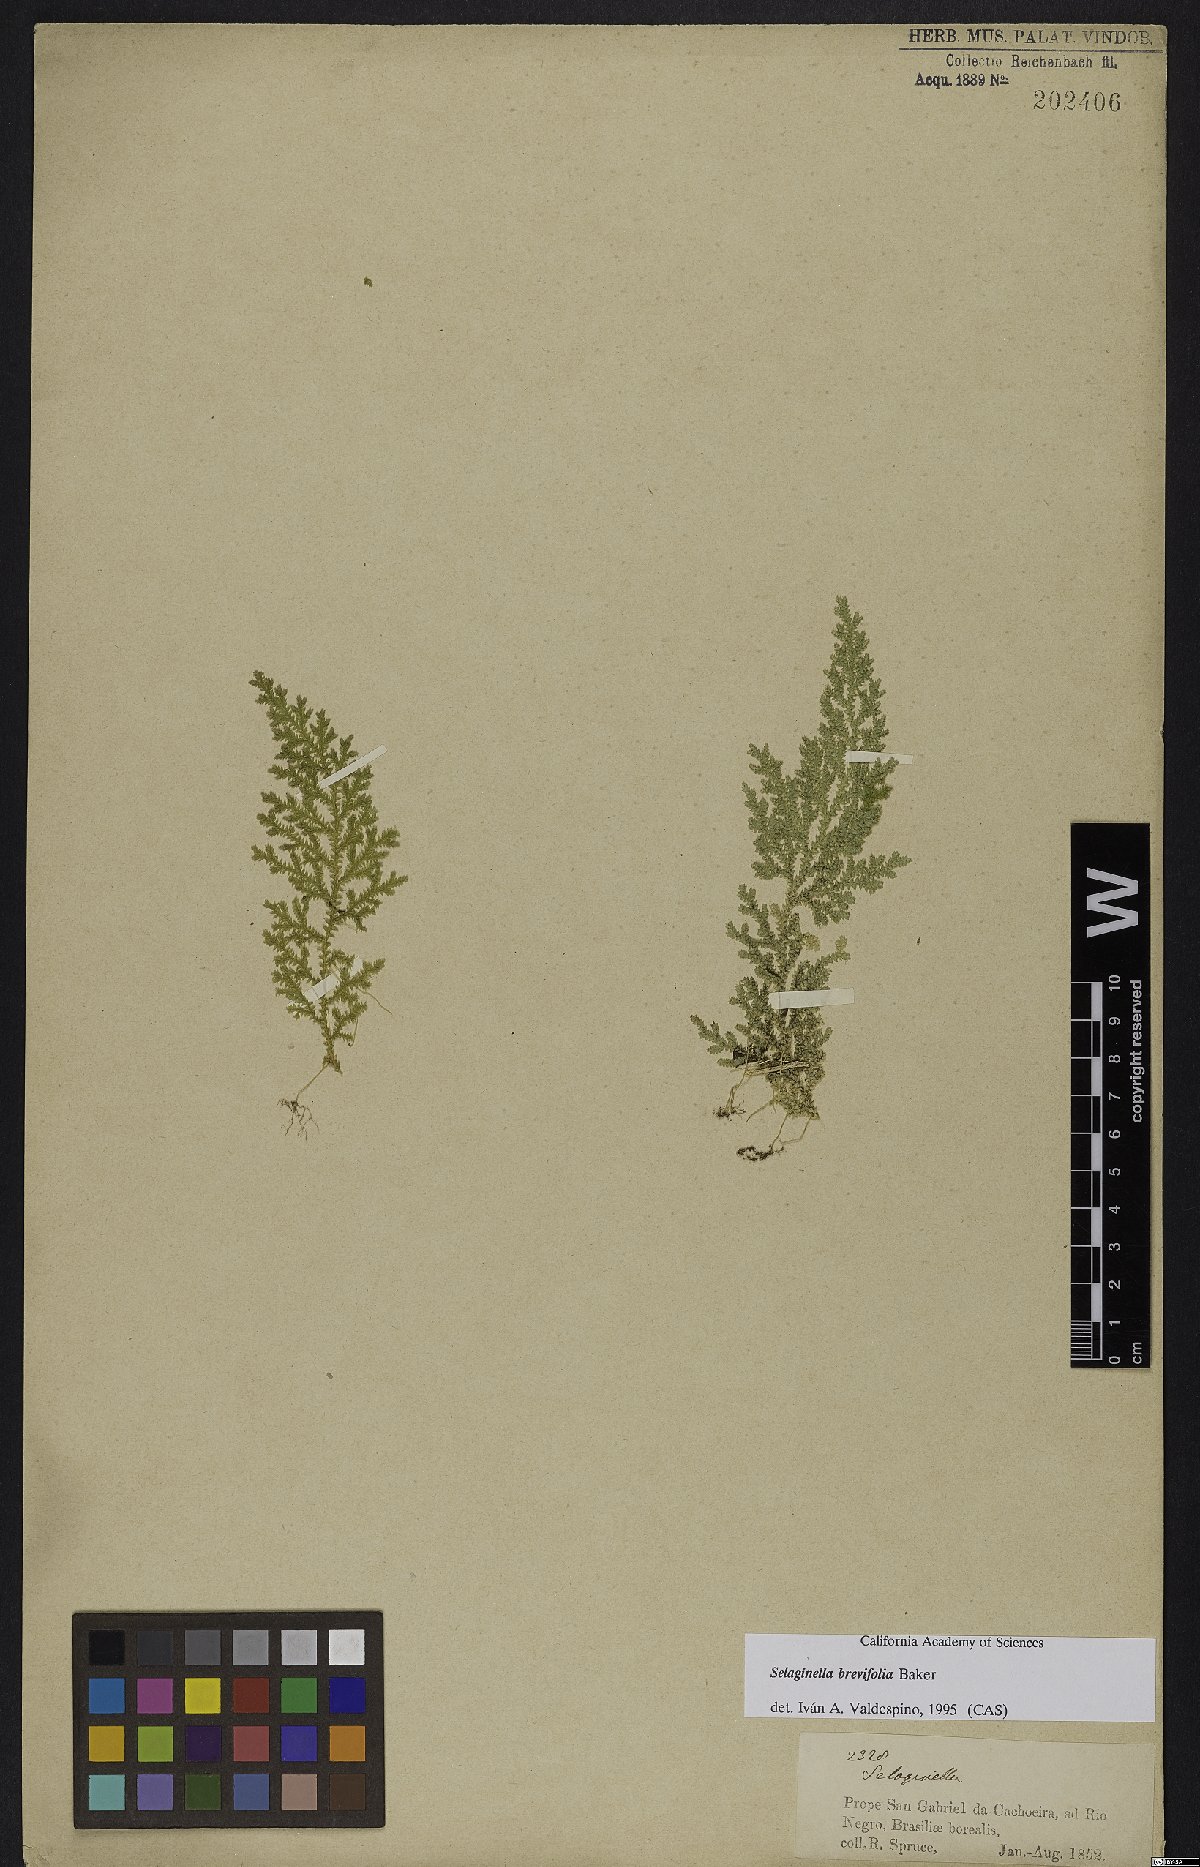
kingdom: Plantae
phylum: Tracheophyta
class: Lycopodiopsida
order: Selaginellales
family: Selaginellaceae
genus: Selaginella
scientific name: Selaginella brevifolia
